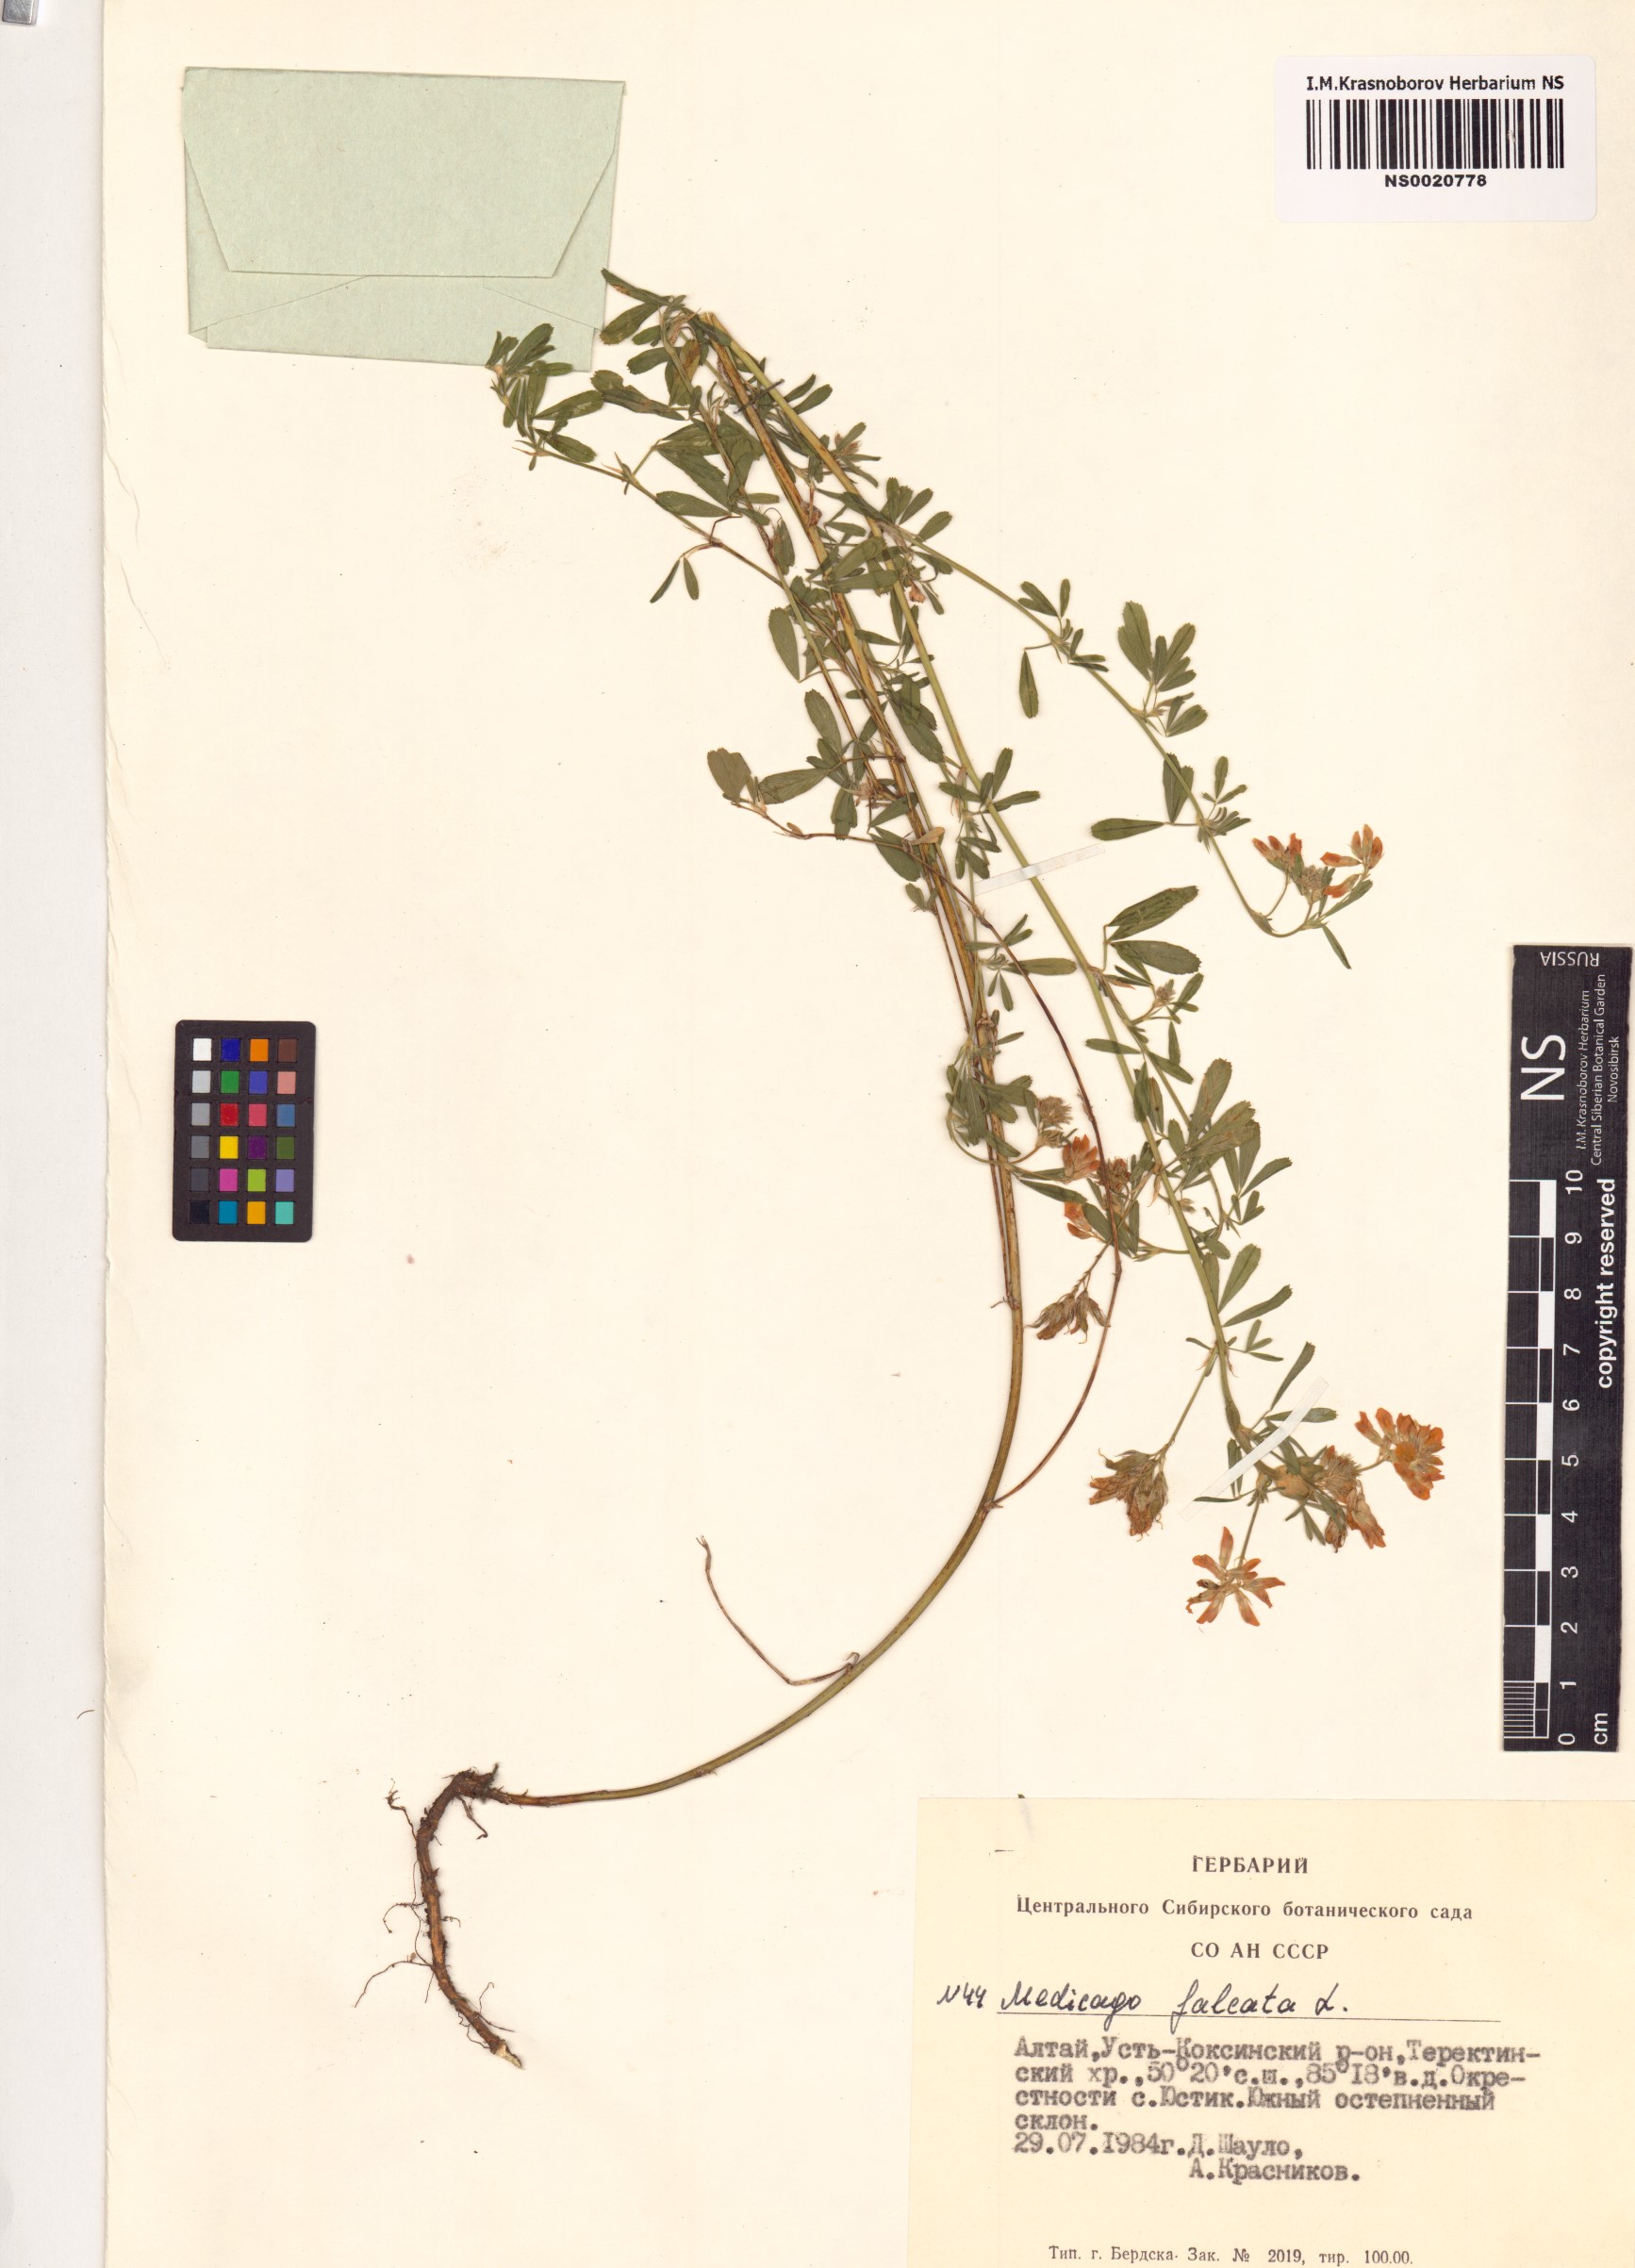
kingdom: Plantae
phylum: Tracheophyta
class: Magnoliopsida
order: Fabales
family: Fabaceae
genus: Medicago
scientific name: Medicago falcata
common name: Sickle medick
